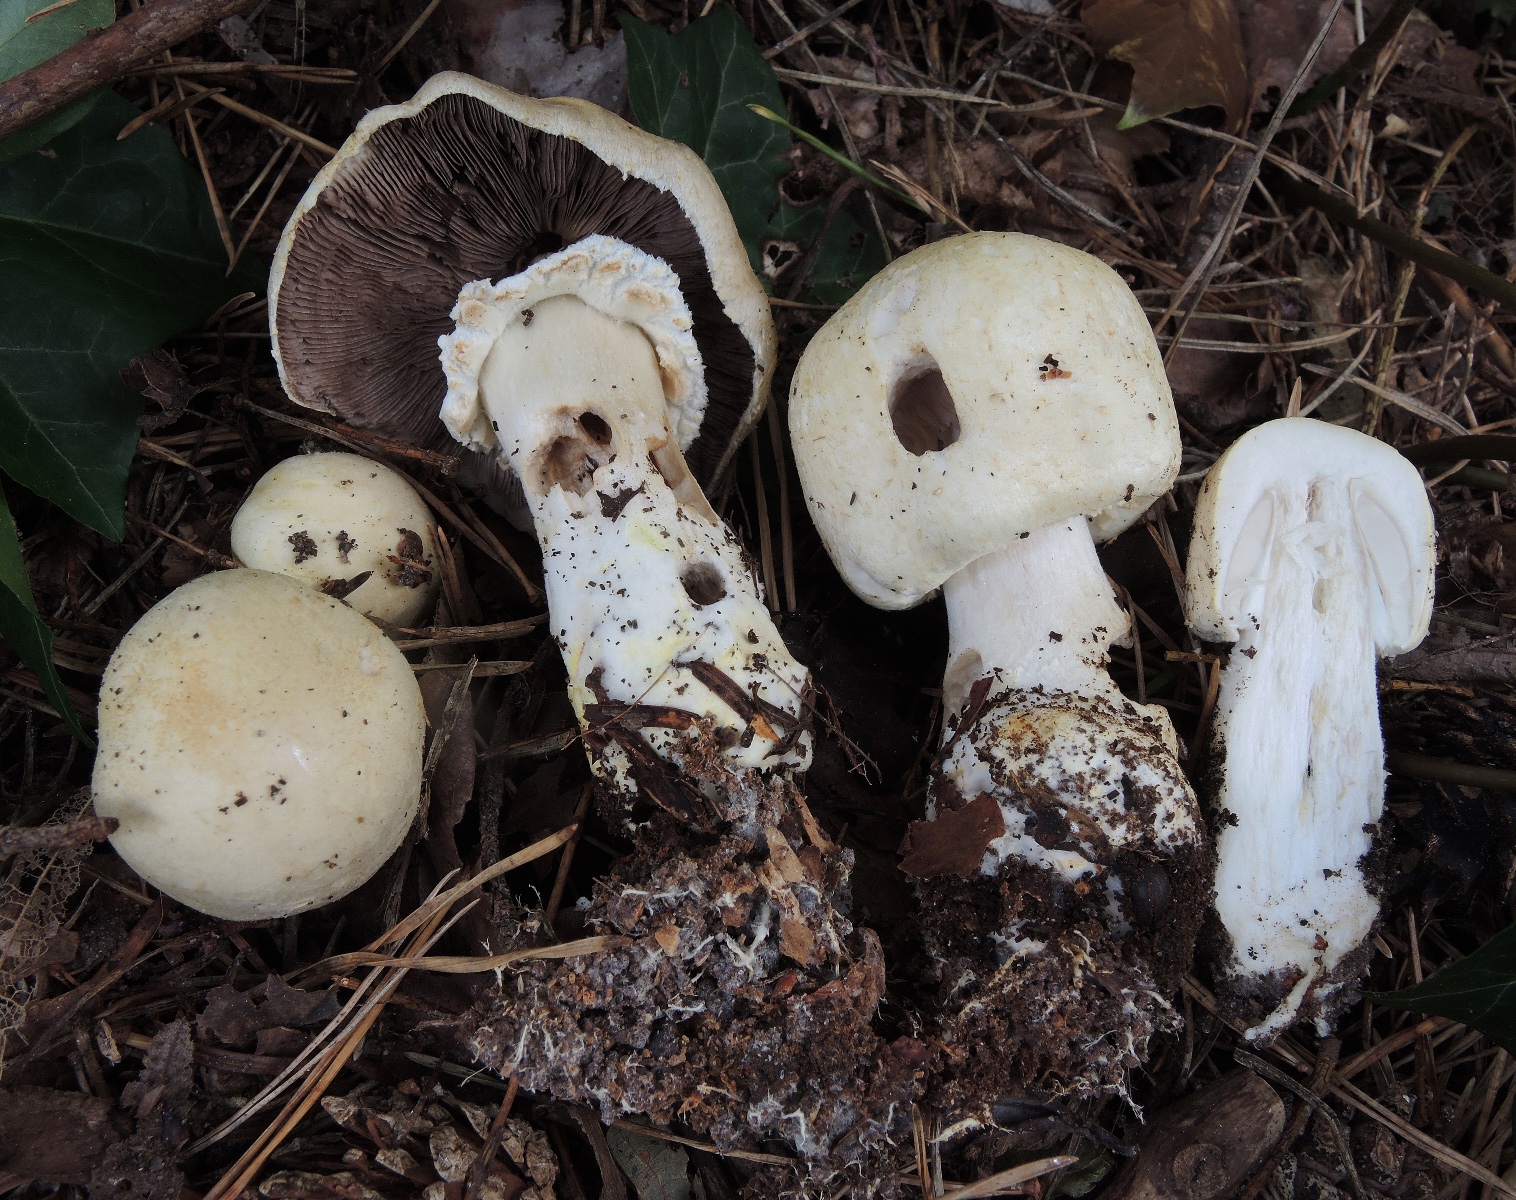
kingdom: Fungi
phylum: Basidiomycota
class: Agaricomycetes
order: Agaricales
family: Agaricaceae
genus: Agaricus
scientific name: Agaricus arvensis
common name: ager-champignon
